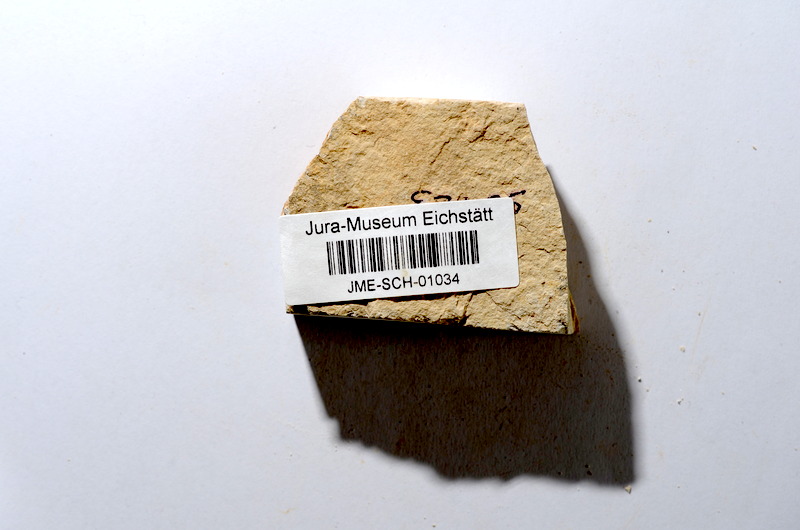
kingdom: Animalia
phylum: Chordata
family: Ascalaboidae
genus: Tharsis
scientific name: Tharsis dubius
